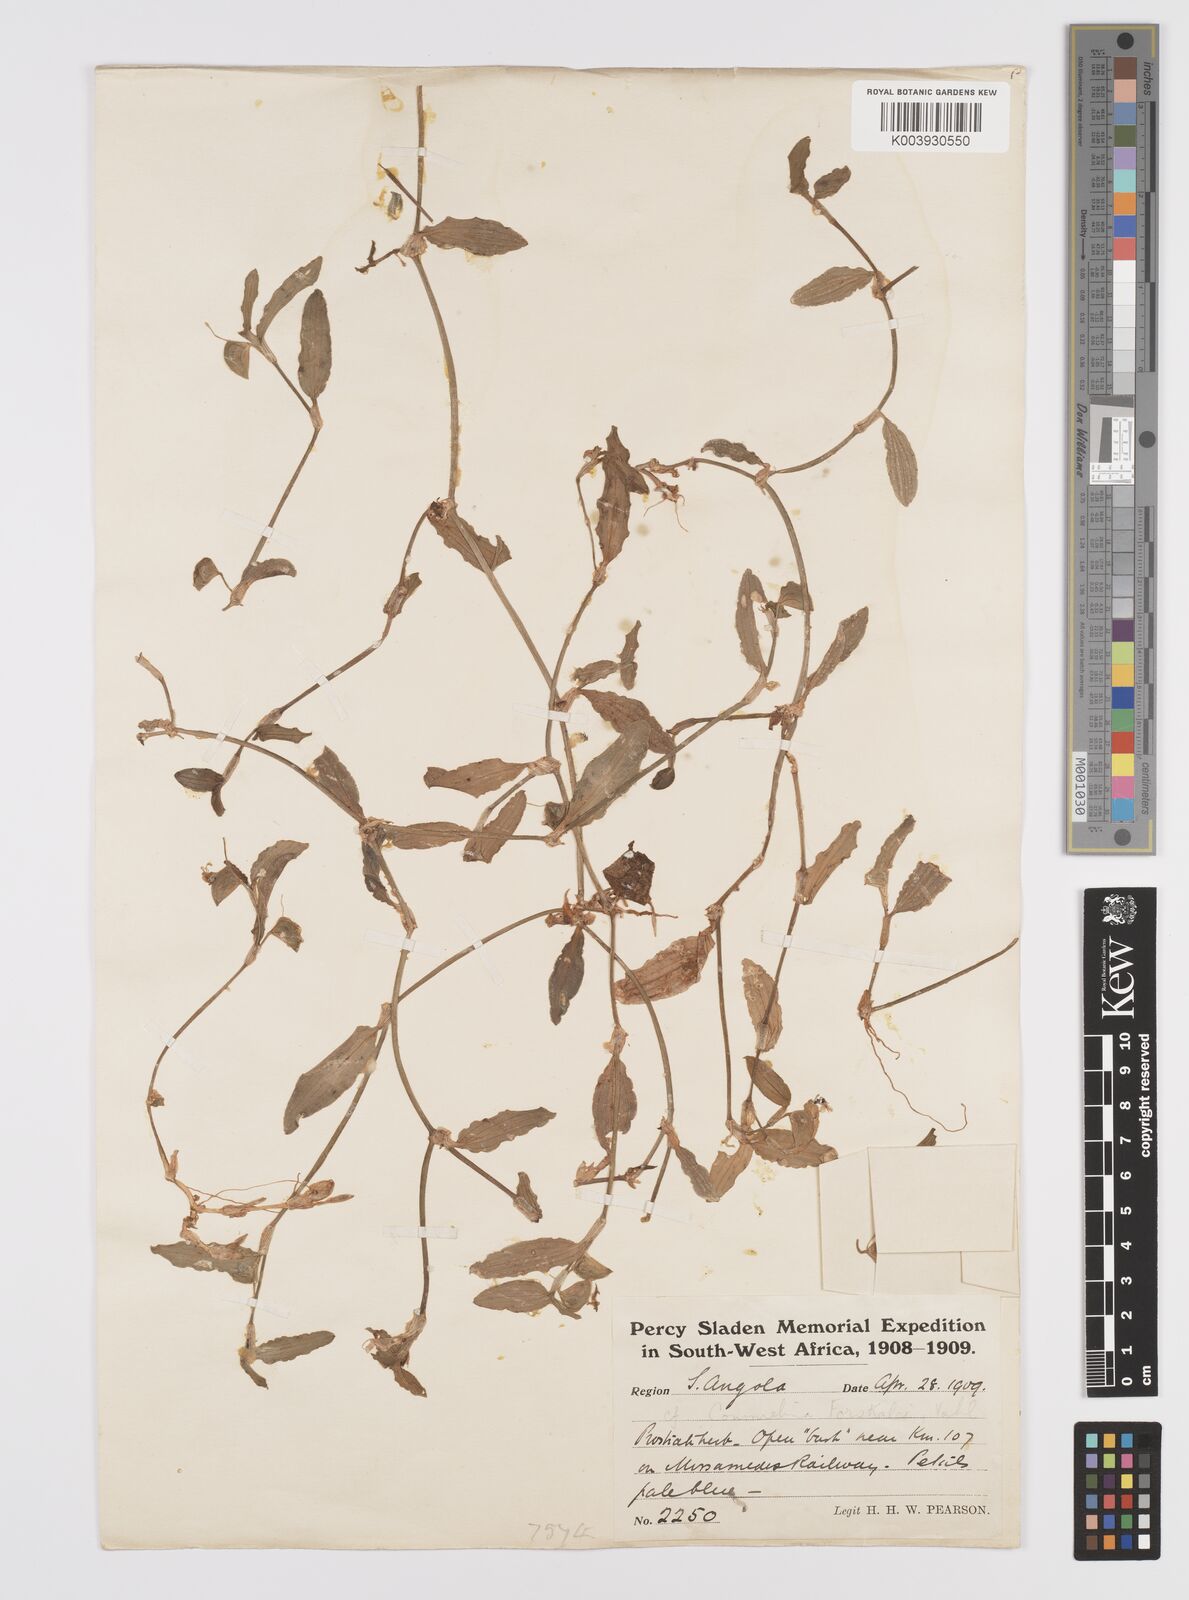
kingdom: Plantae
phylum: Tracheophyta
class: Liliopsida
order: Commelinales
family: Commelinaceae
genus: Commelina
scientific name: Commelina forskaolii
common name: Rat's ear
